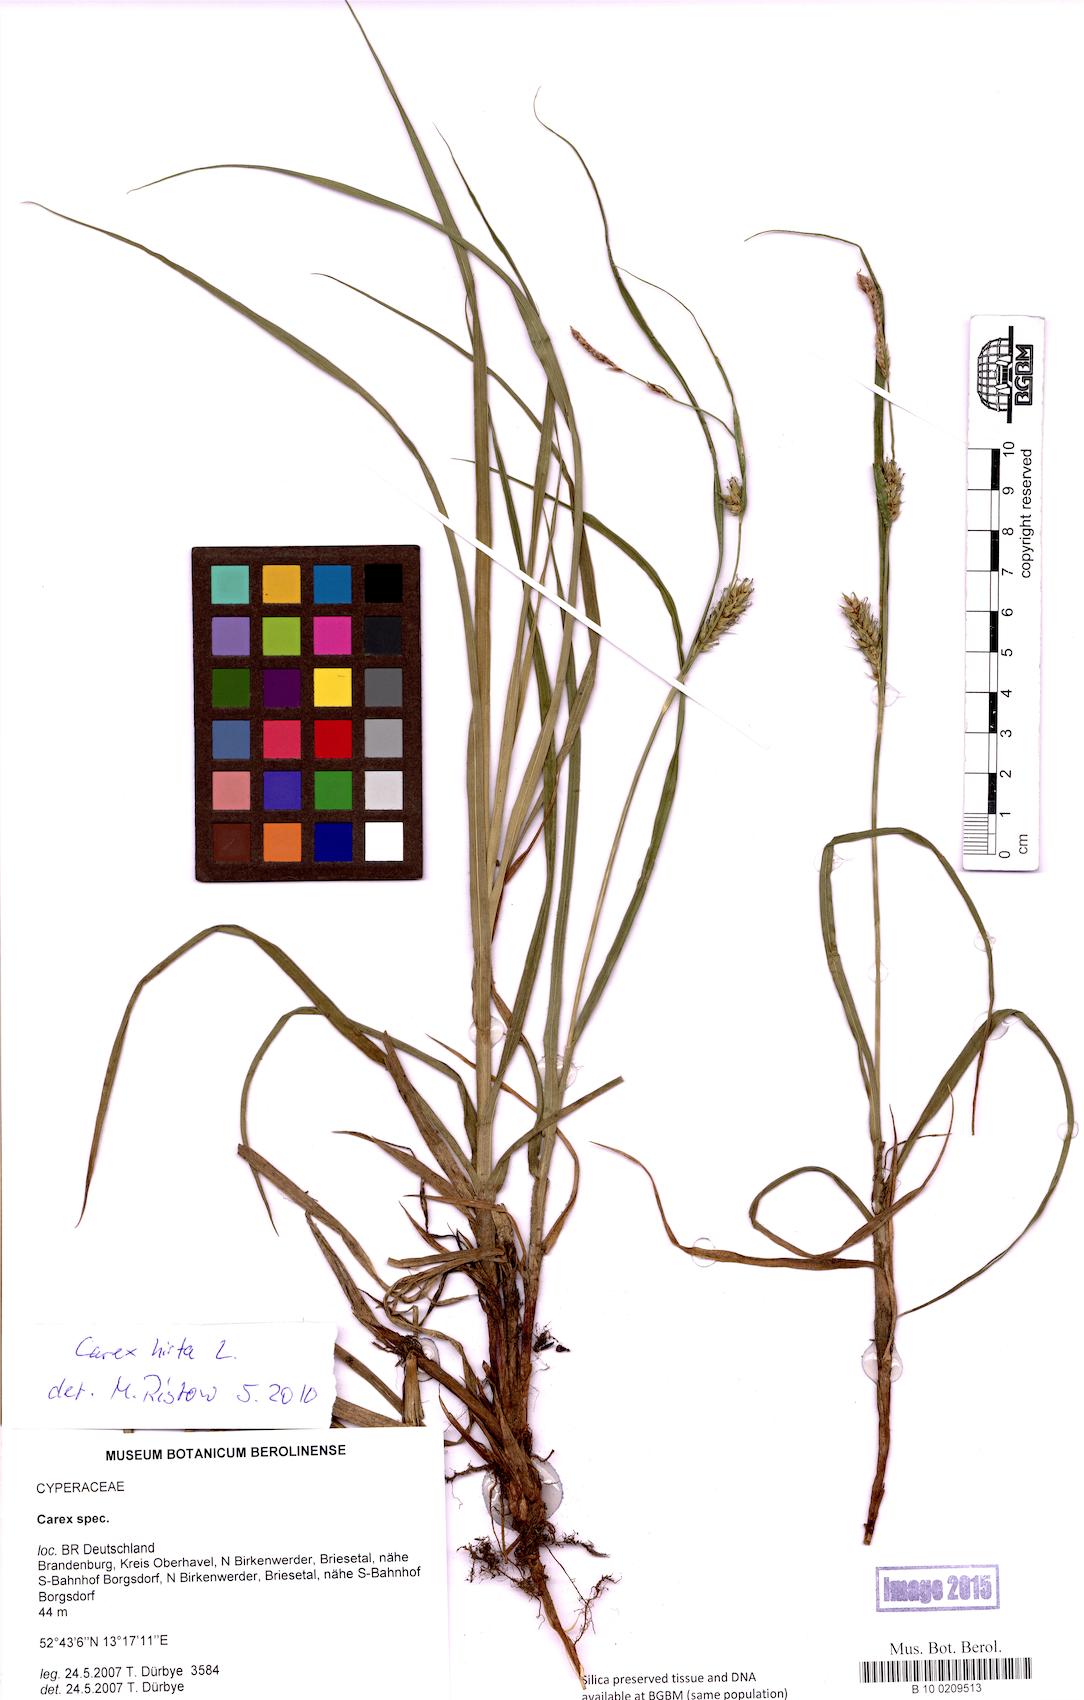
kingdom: Plantae
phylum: Tracheophyta
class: Liliopsida
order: Poales
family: Cyperaceae
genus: Carex
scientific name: Carex hirta
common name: Hairy sedge
